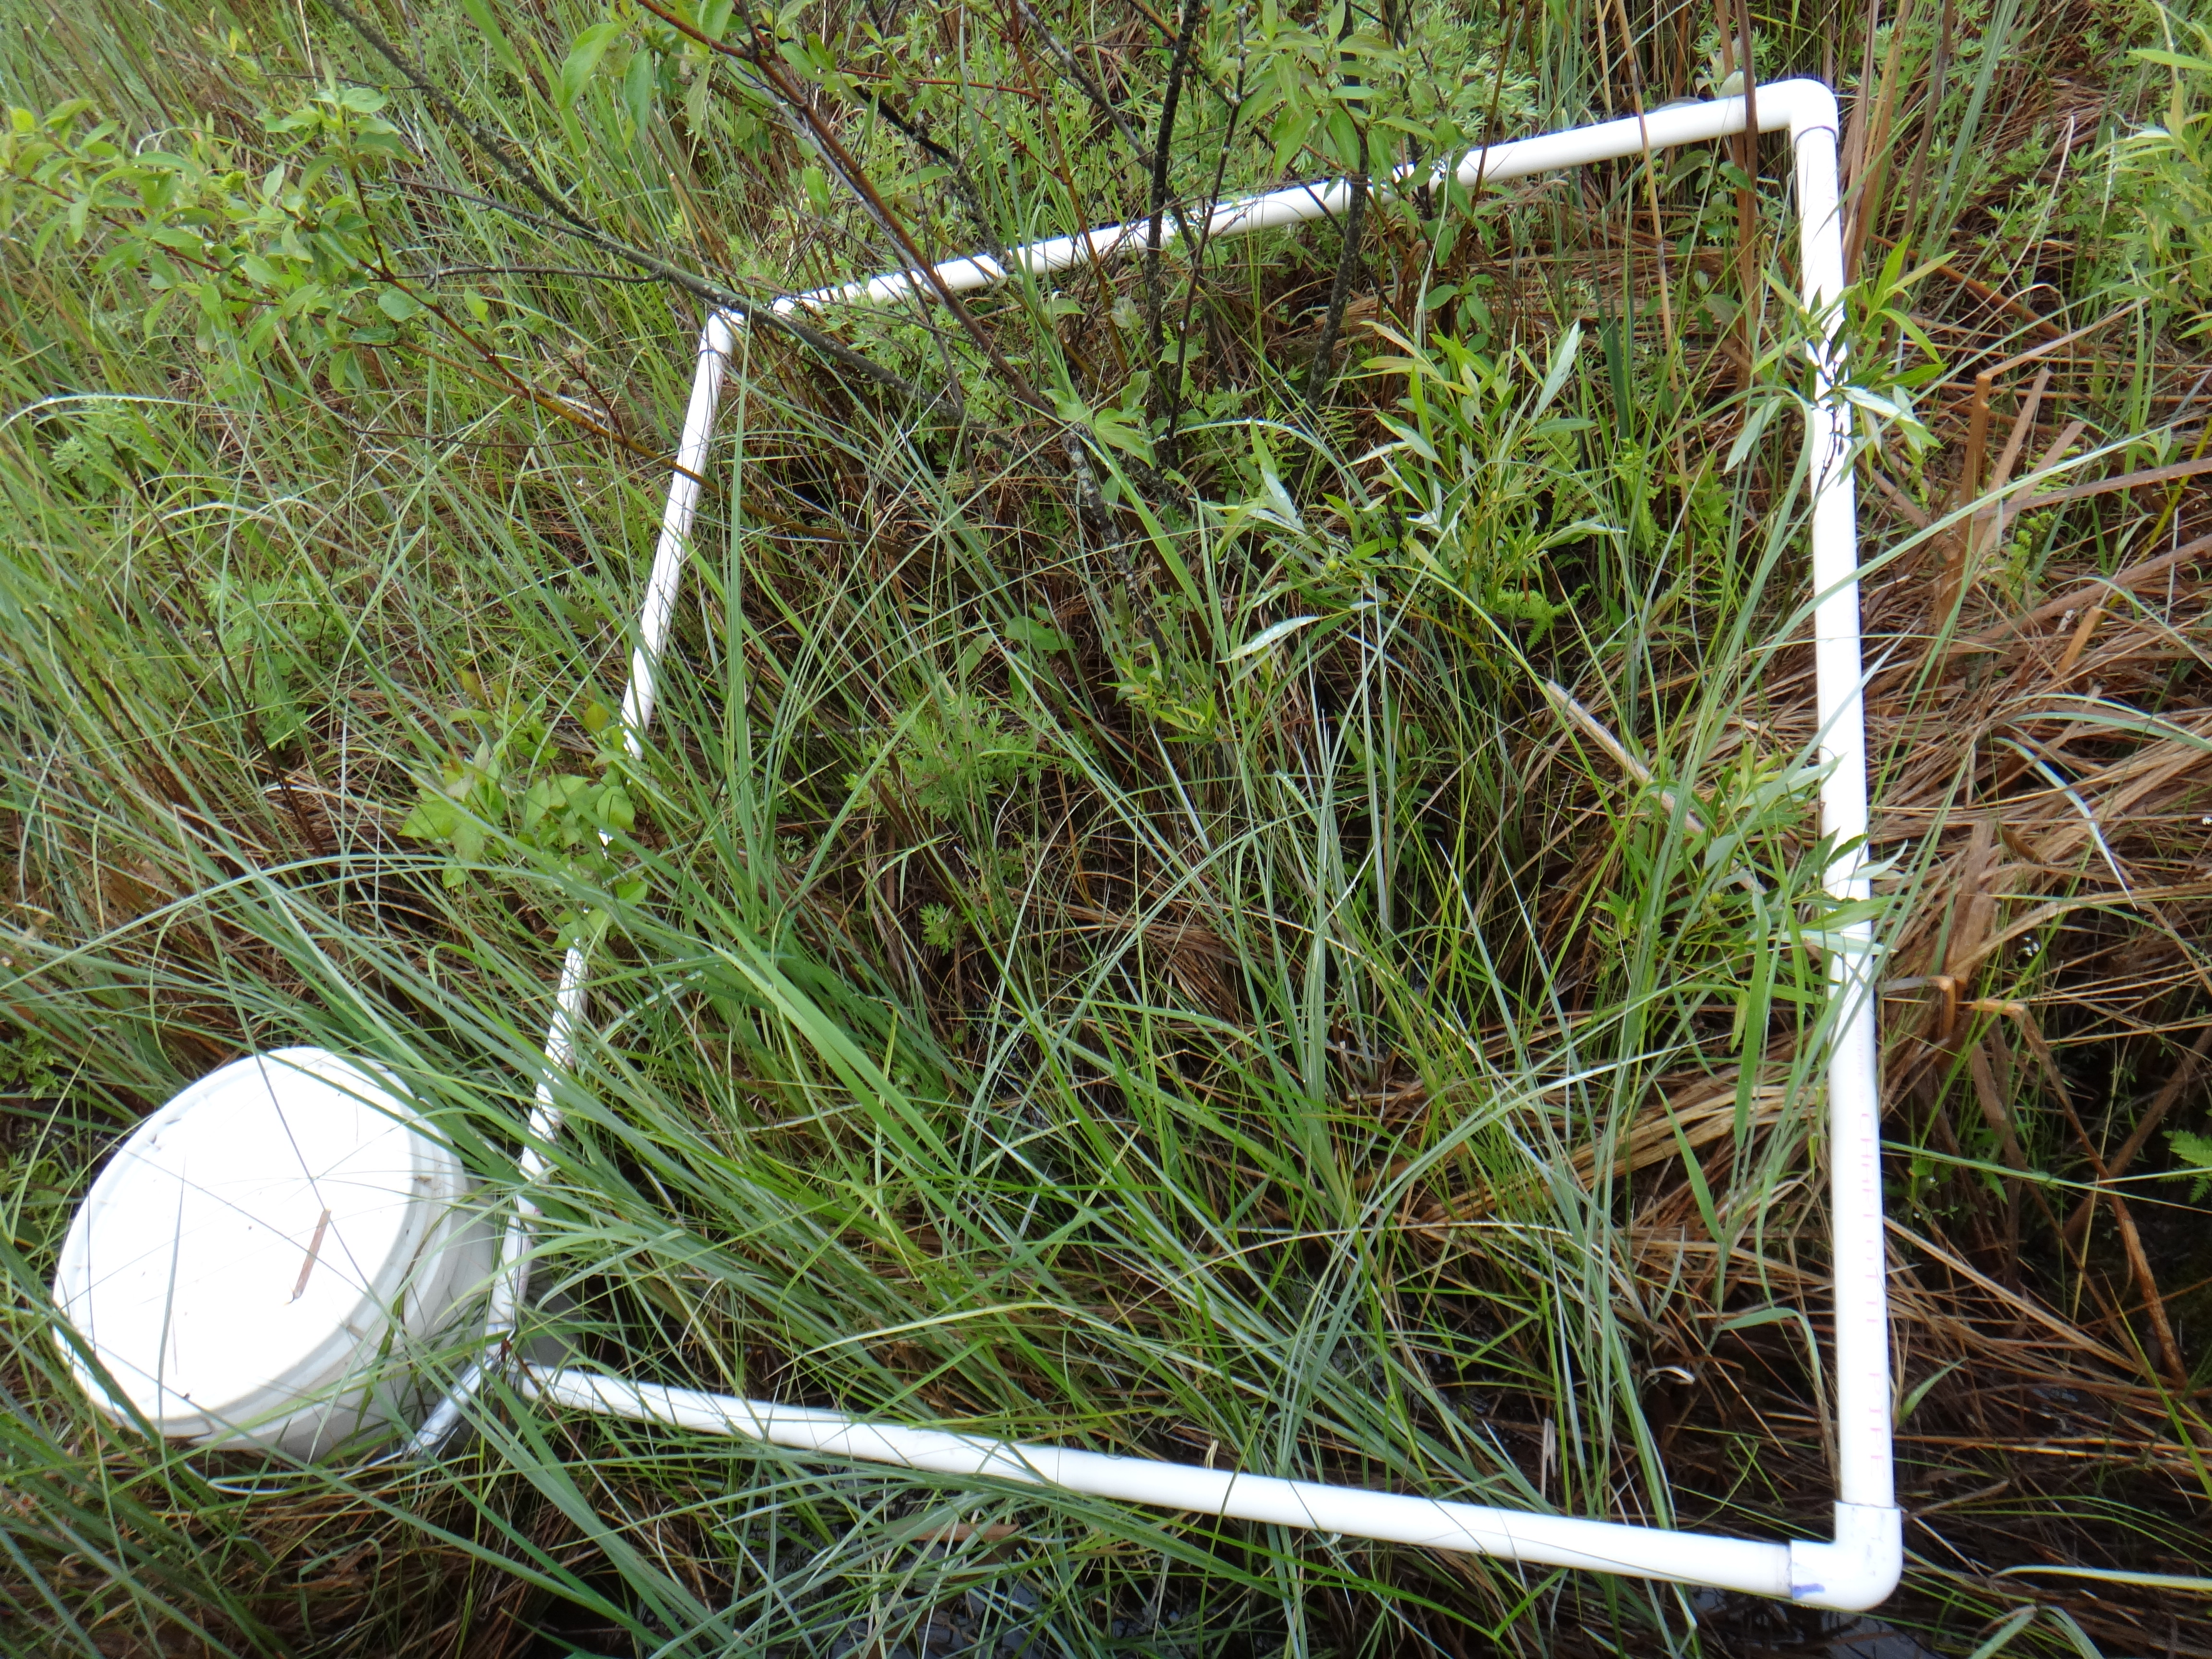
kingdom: Plantae
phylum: Tracheophyta
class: Magnoliopsida
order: Cornales
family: Cornaceae
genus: Cornus
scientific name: Cornus amomum
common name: Silky dogwood
